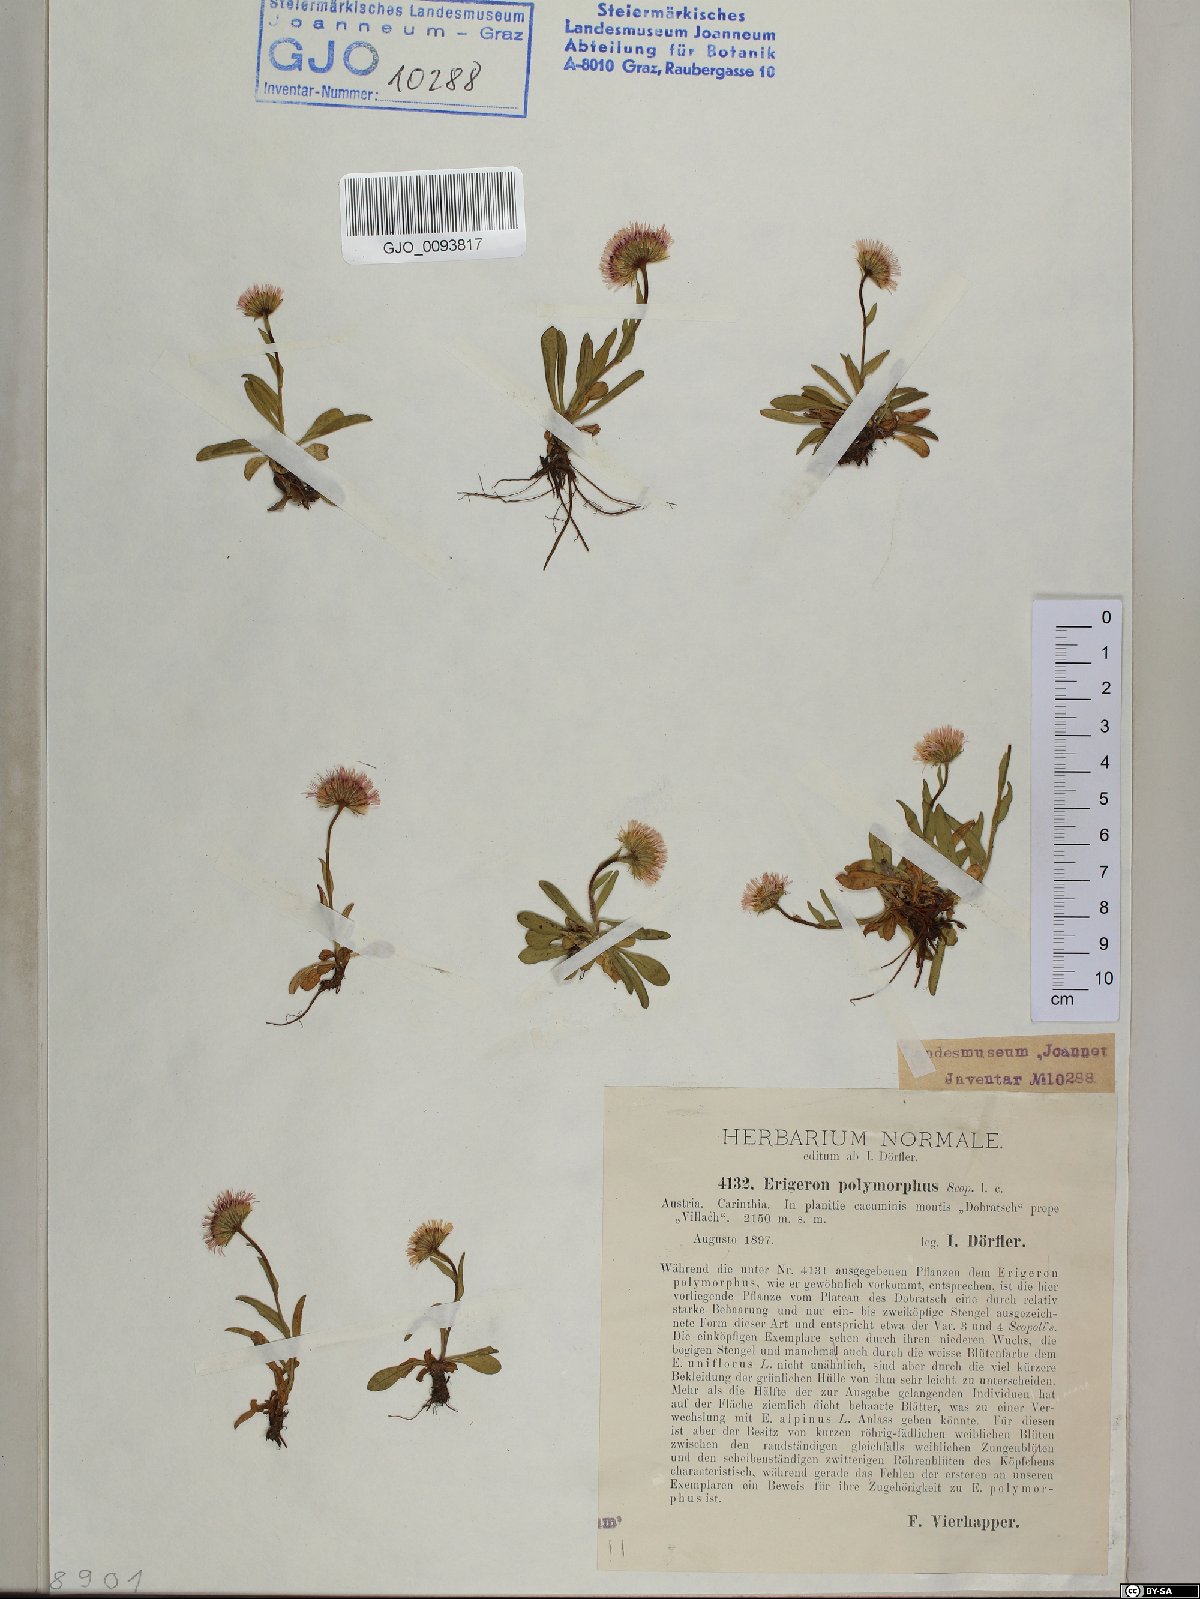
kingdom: Plantae
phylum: Tracheophyta
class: Magnoliopsida
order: Asterales
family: Asteraceae
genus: Erigeron
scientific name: Erigeron alpinus
